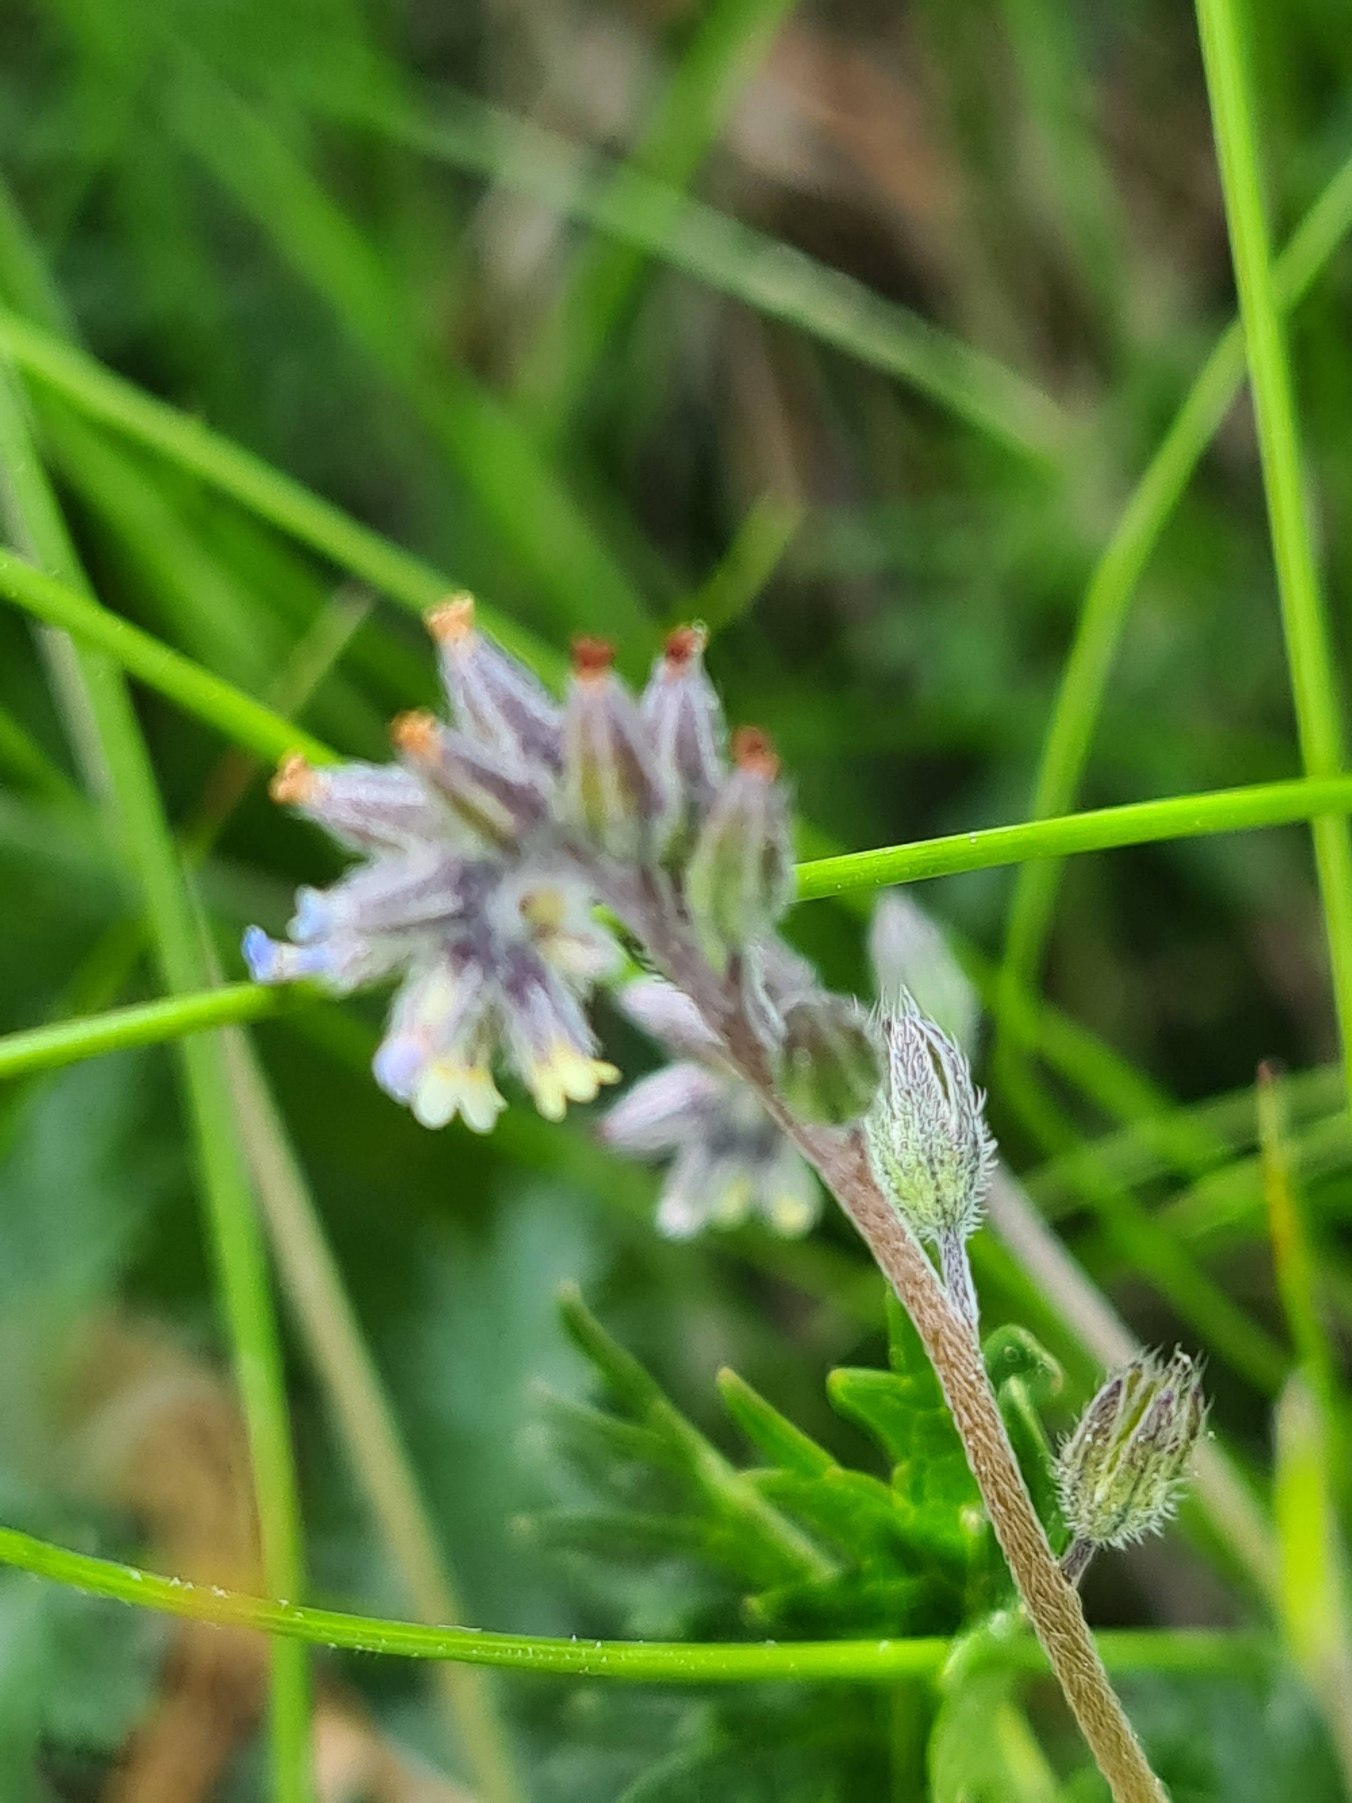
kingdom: Plantae
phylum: Tracheophyta
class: Magnoliopsida
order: Boraginales
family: Boraginaceae
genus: Myosotis
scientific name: Myosotis discolor
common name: Forskelligfarvet forglemmigej
